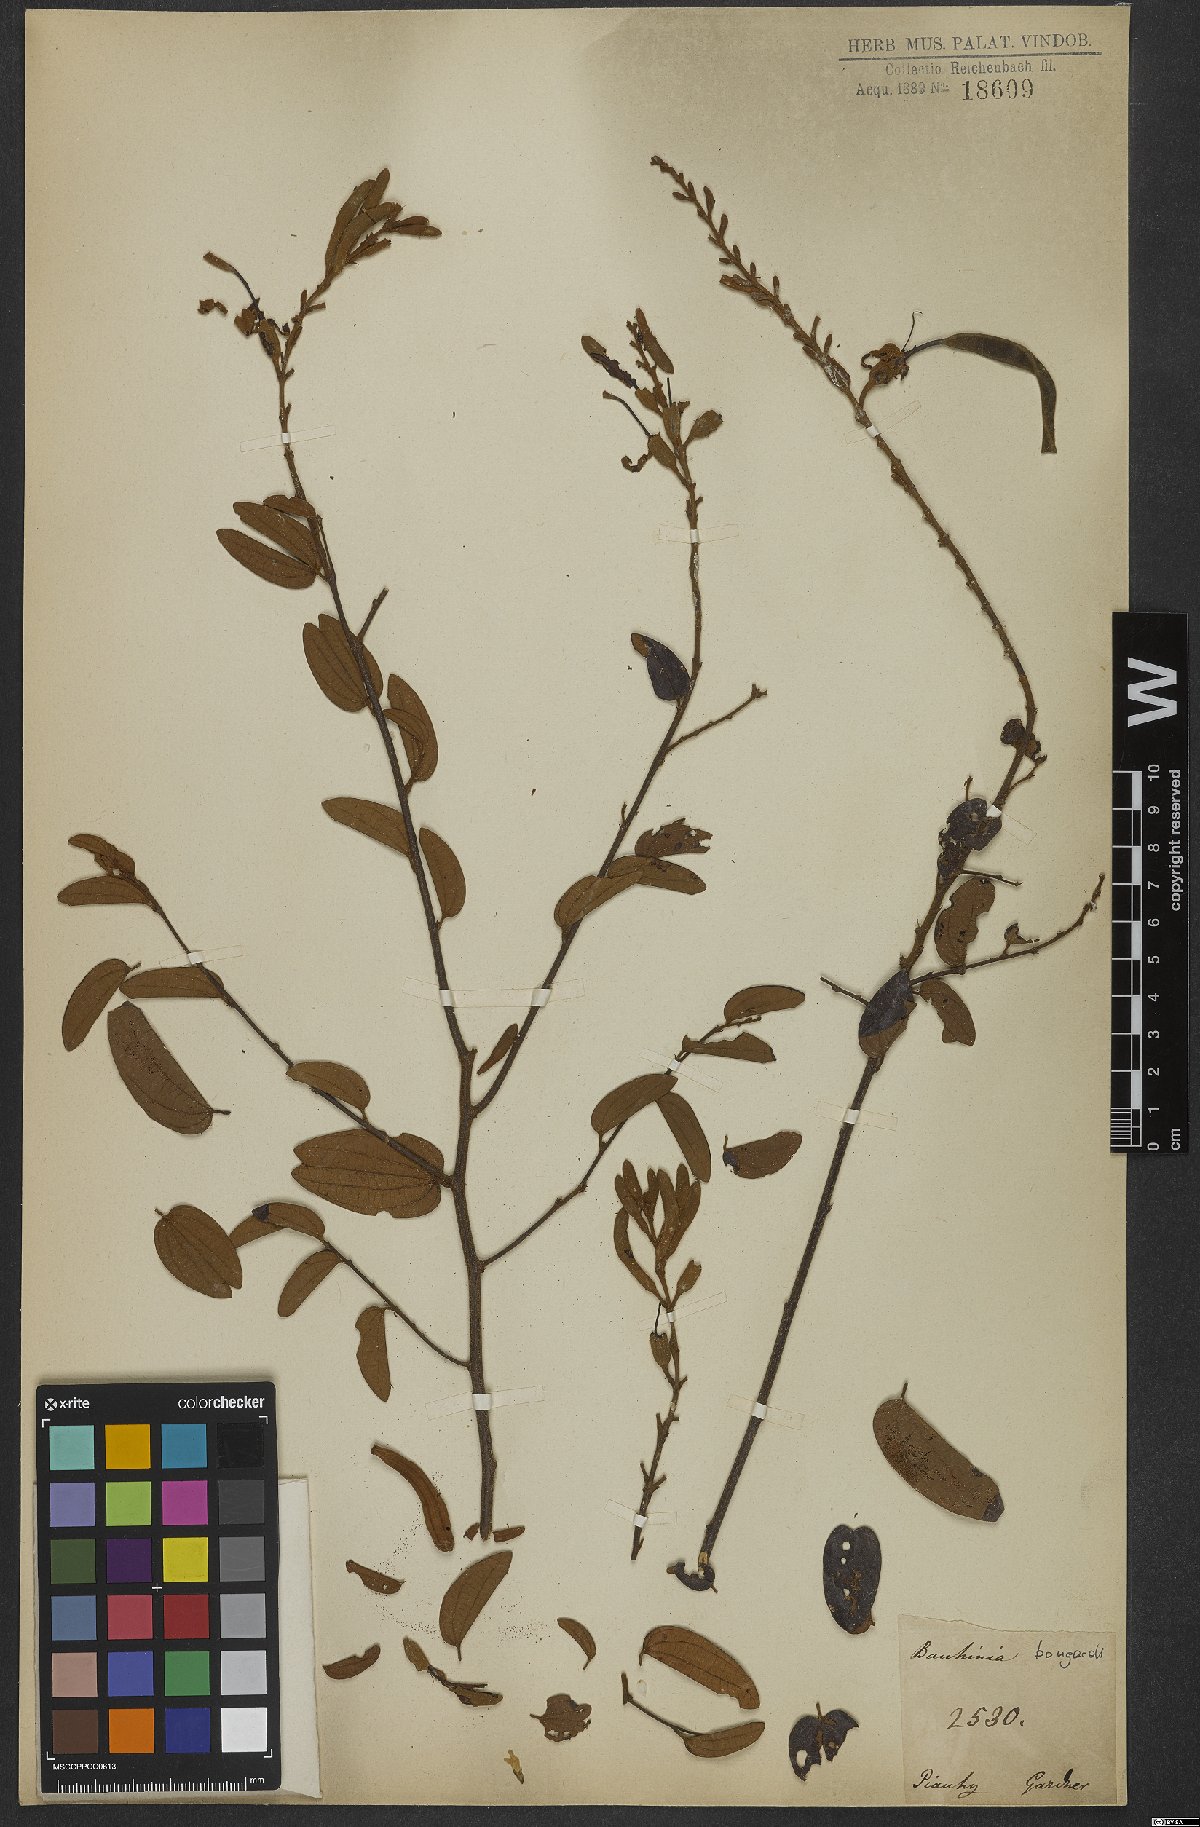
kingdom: Plantae
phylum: Tracheophyta
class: Magnoliopsida
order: Fabales
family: Fabaceae
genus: Bauhinia
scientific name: Bauhinia brevipes
